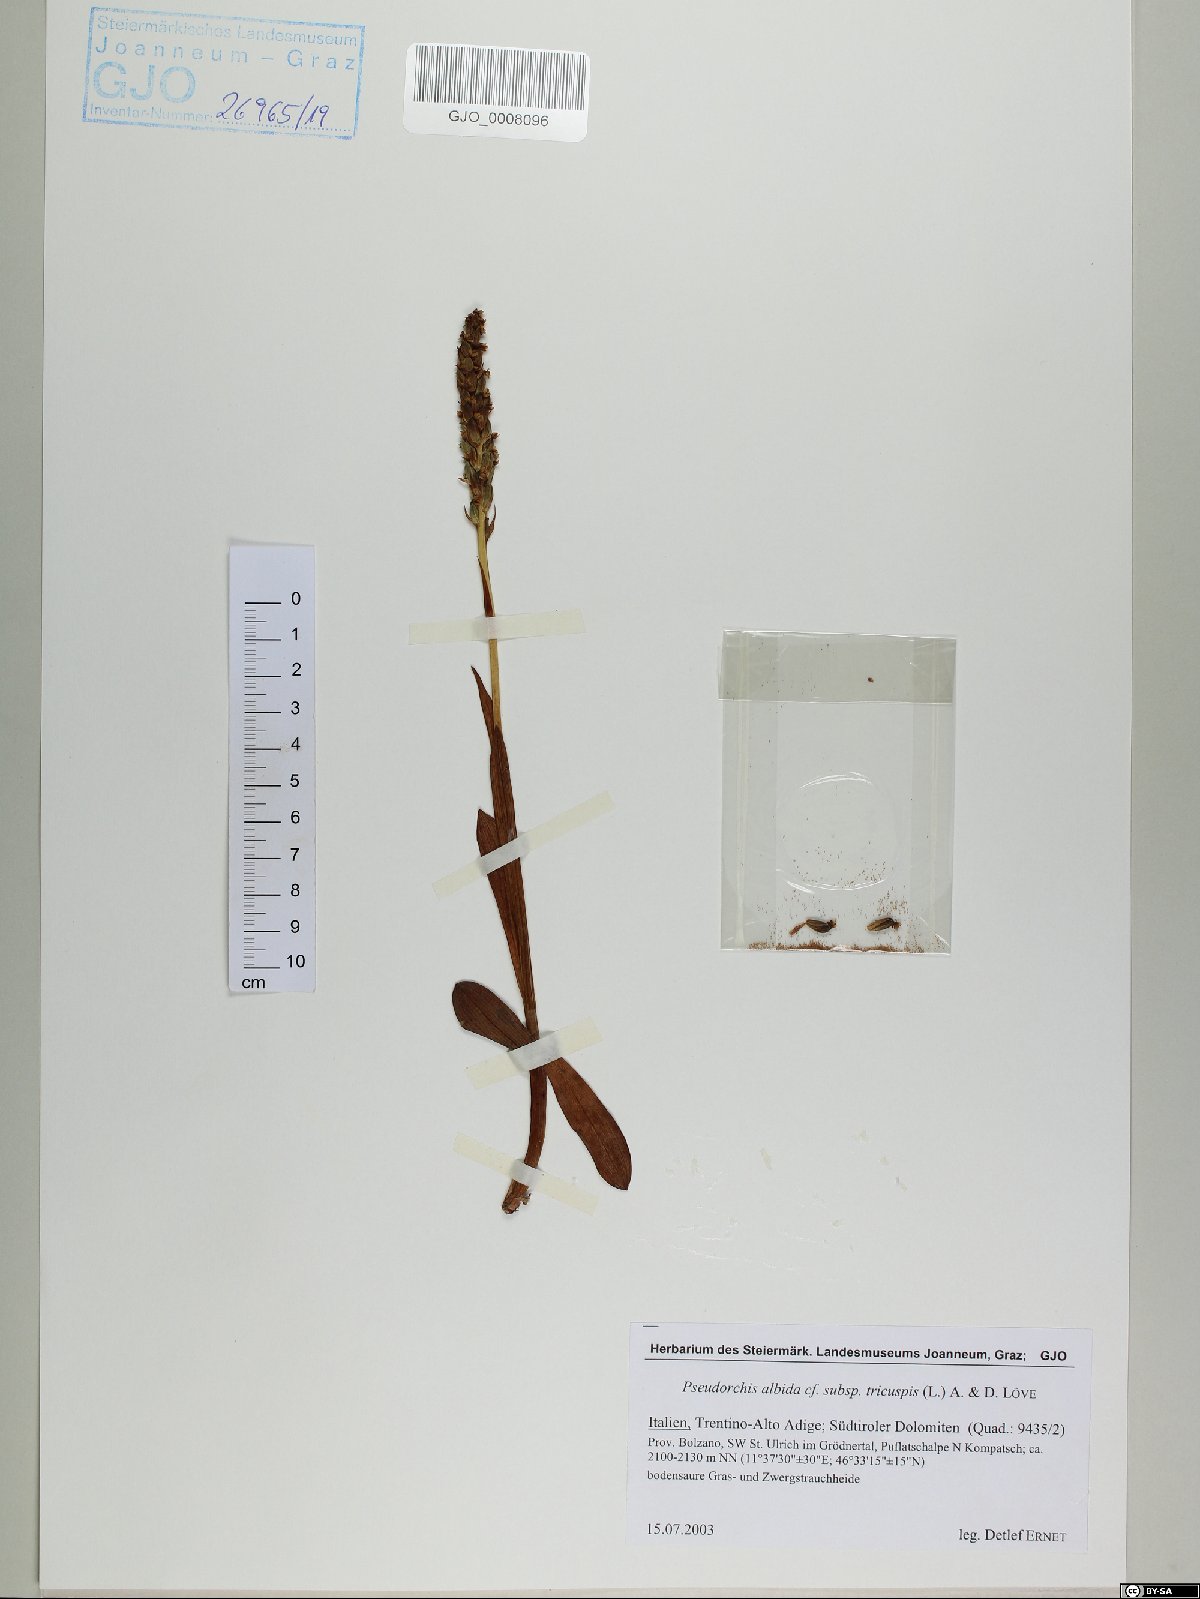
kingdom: Plantae
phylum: Tracheophyta
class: Liliopsida
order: Asparagales
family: Orchidaceae
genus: Pseudorchis
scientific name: Pseudorchis albida
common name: Small-white orchid
